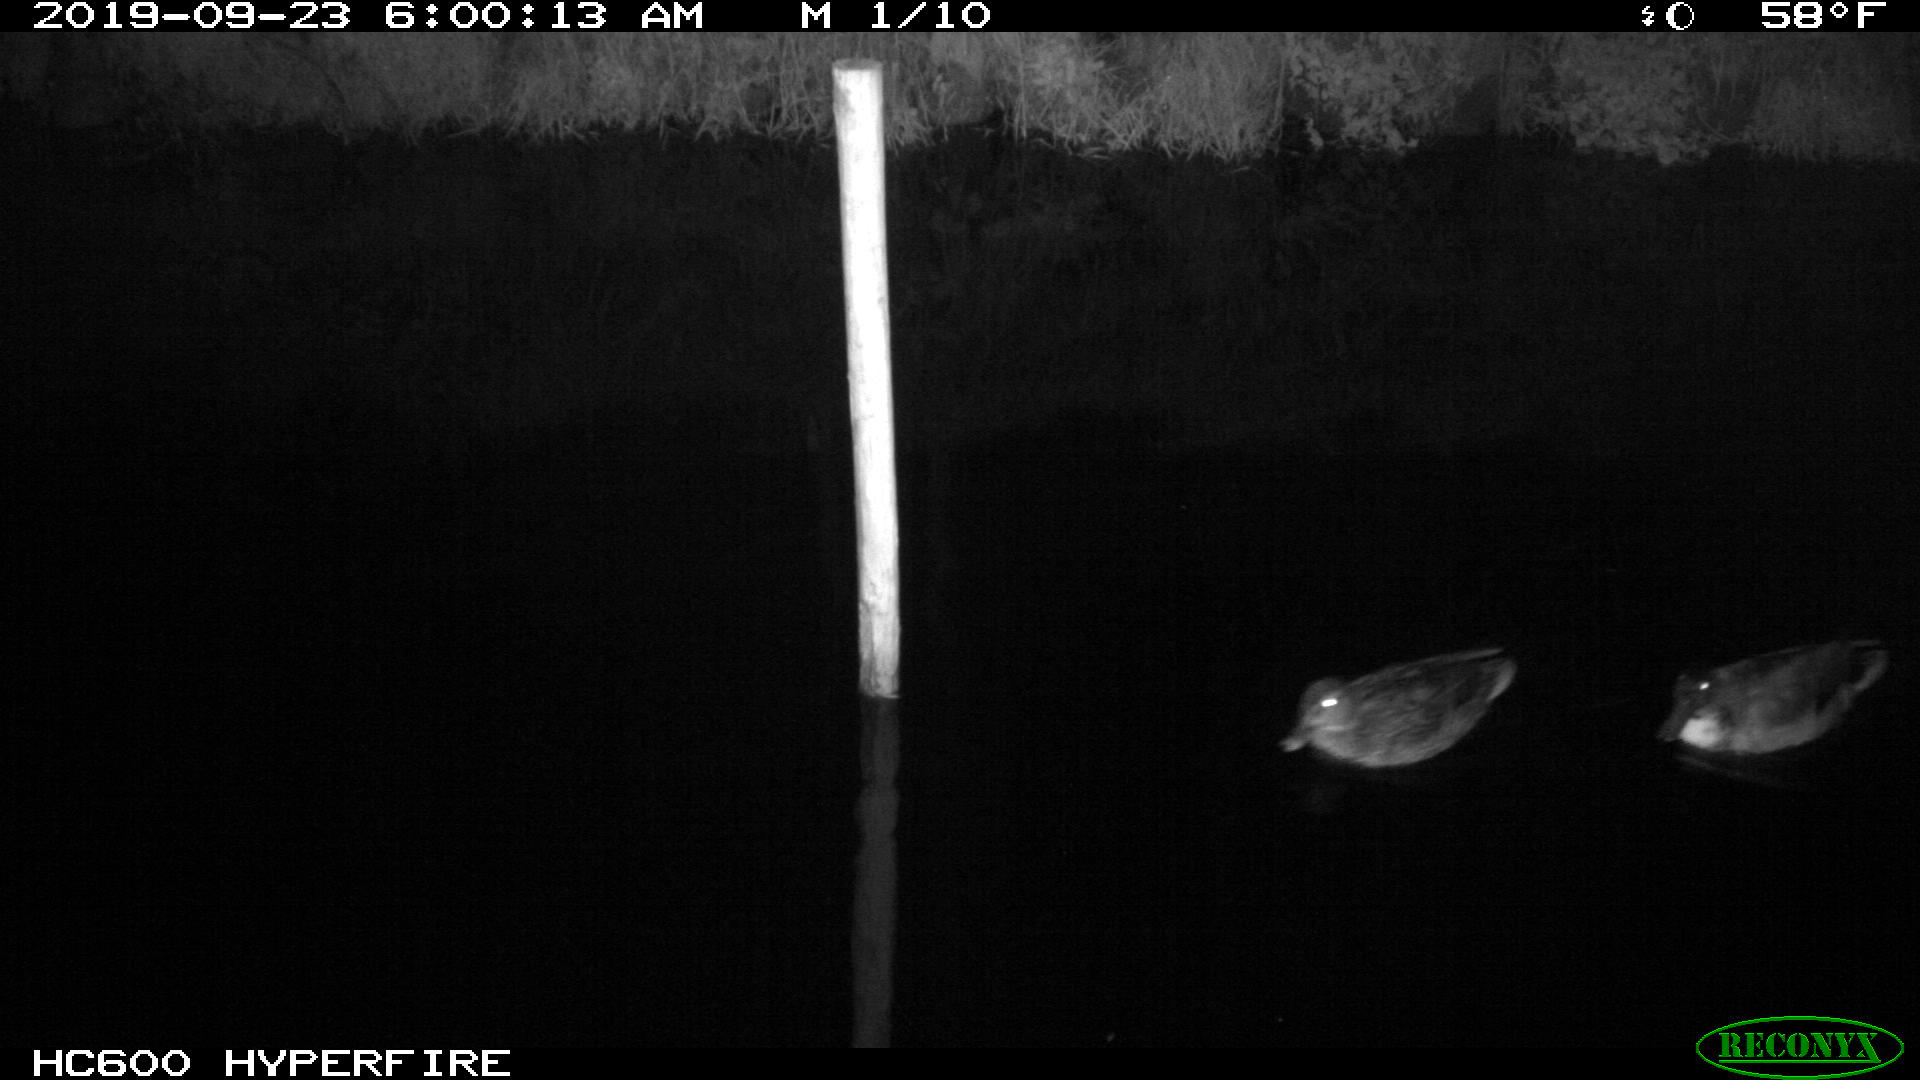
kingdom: Animalia
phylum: Chordata
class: Aves
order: Anseriformes
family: Anatidae
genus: Anas
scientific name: Anas platyrhynchos
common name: Mallard
